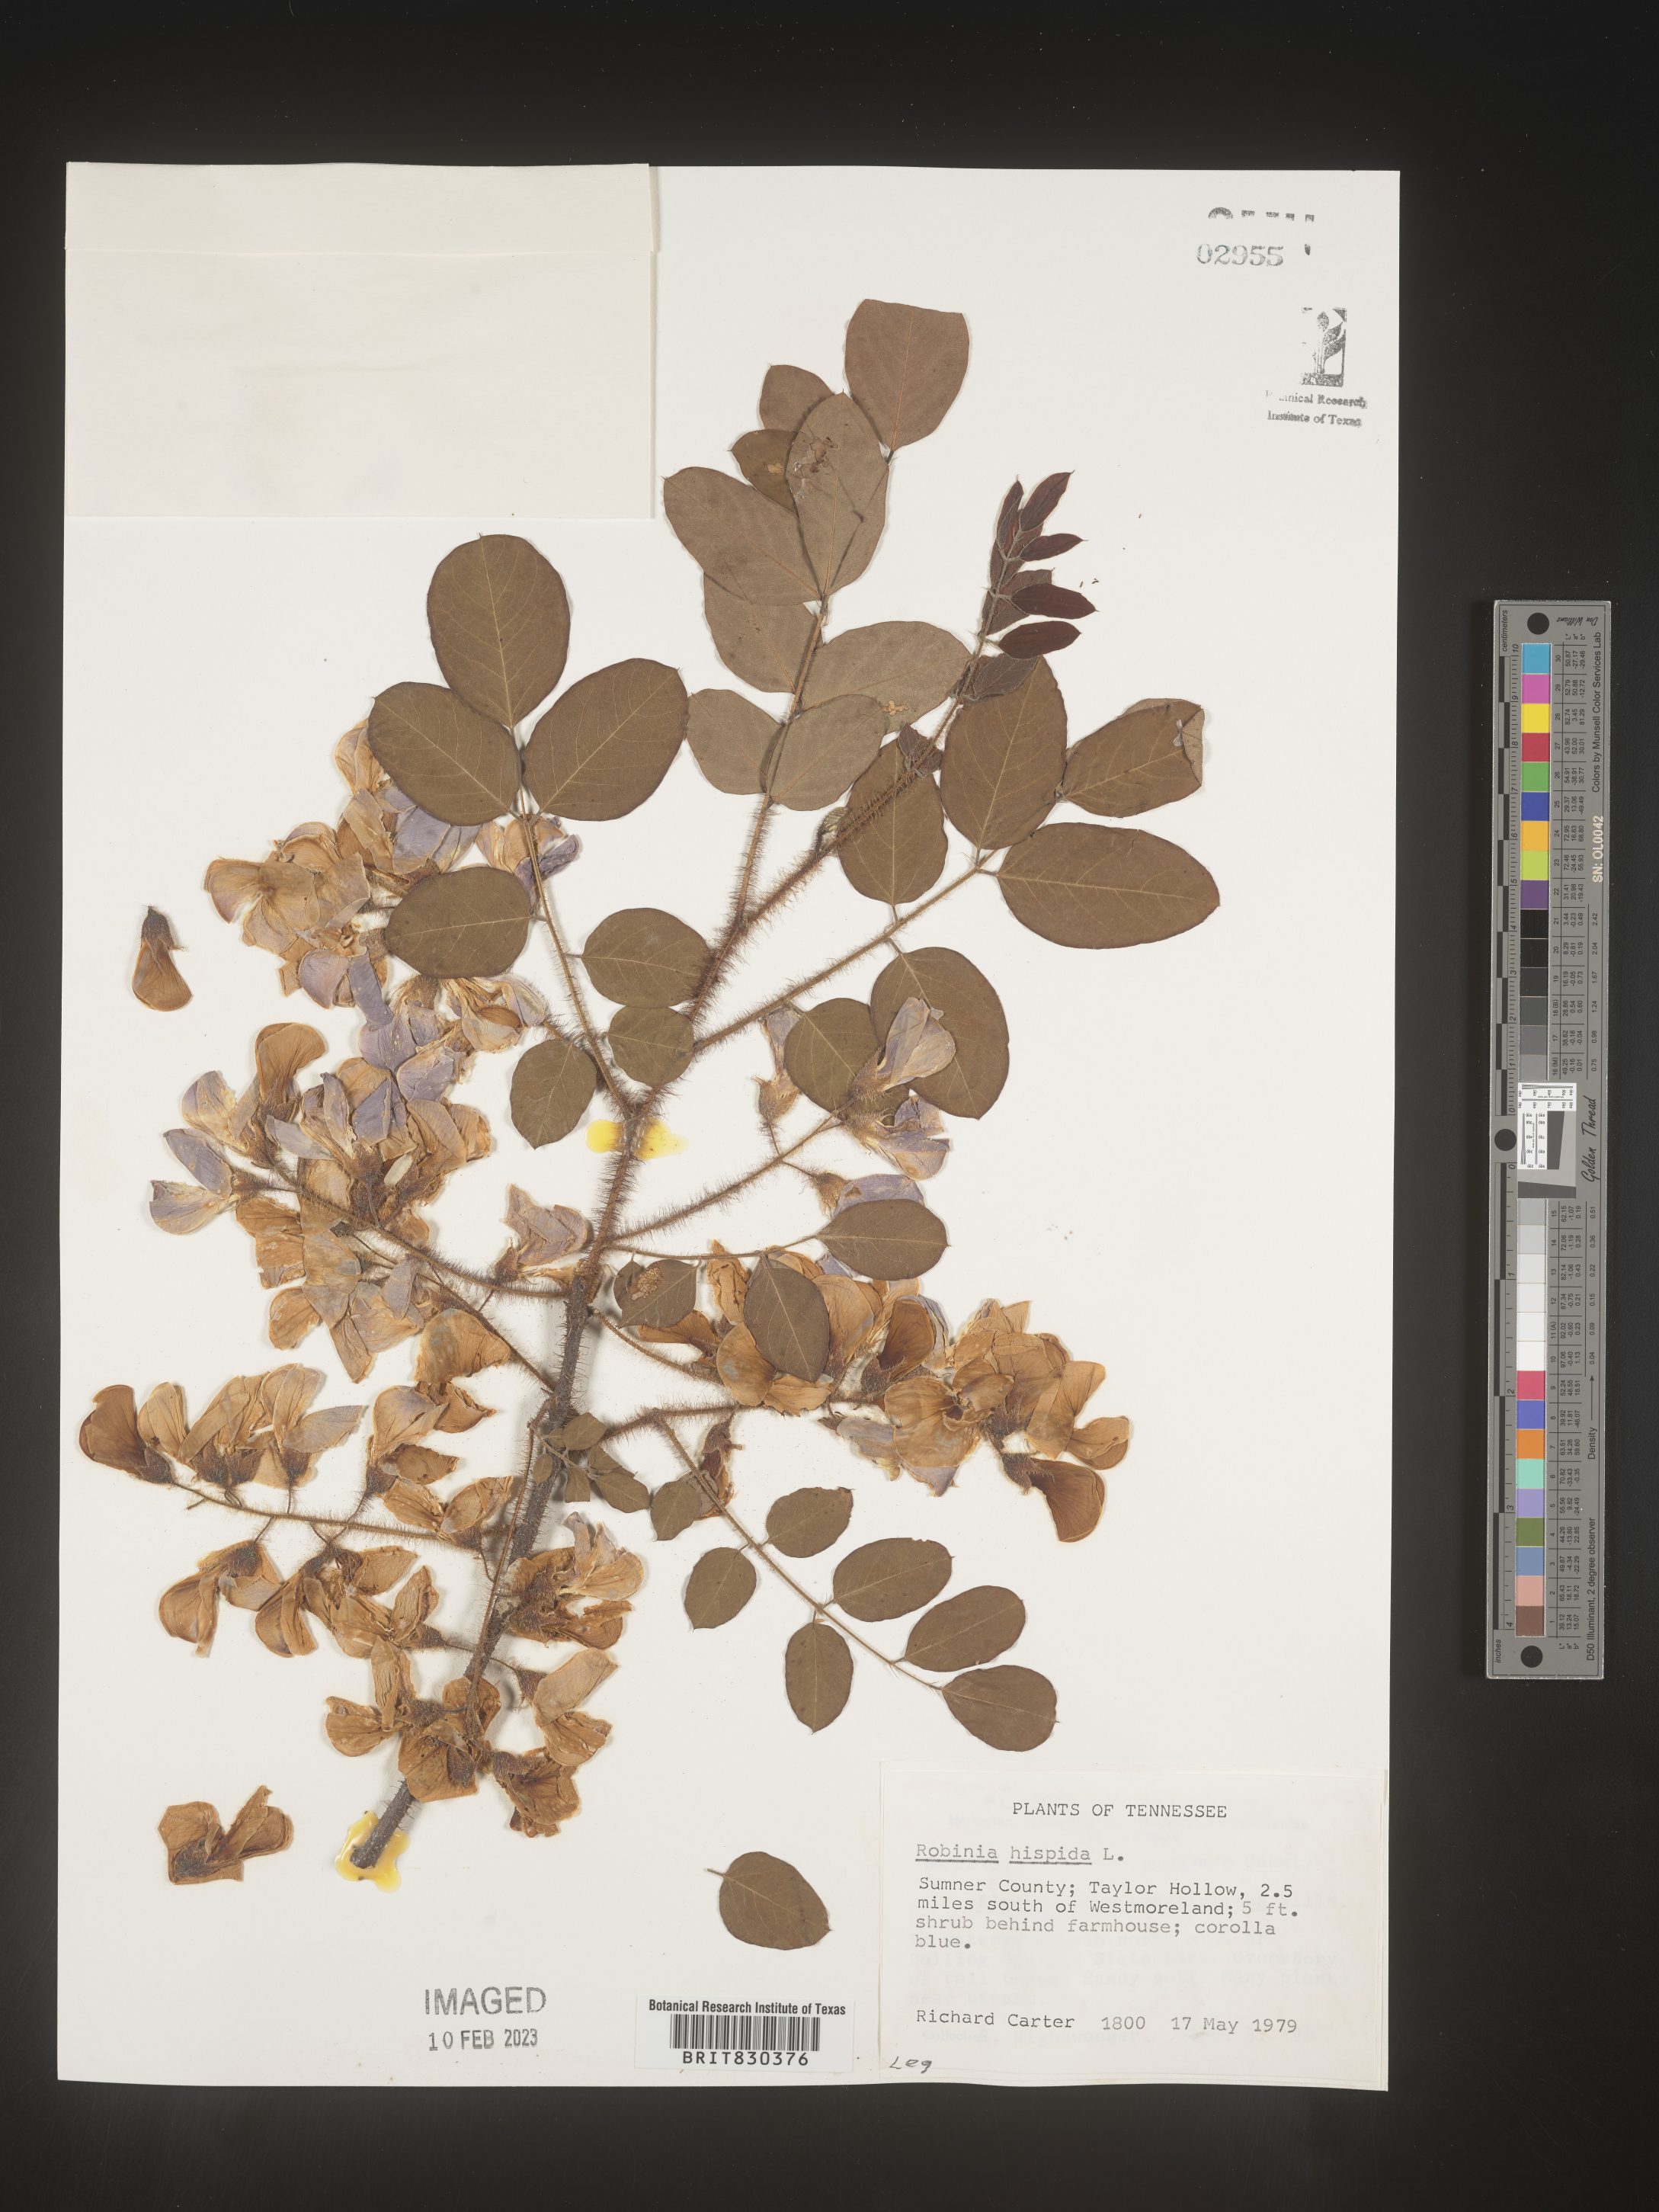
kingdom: Plantae
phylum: Tracheophyta
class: Magnoliopsida
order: Fabales
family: Fabaceae
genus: Robinia
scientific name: Robinia hispida
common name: Bristly locust
